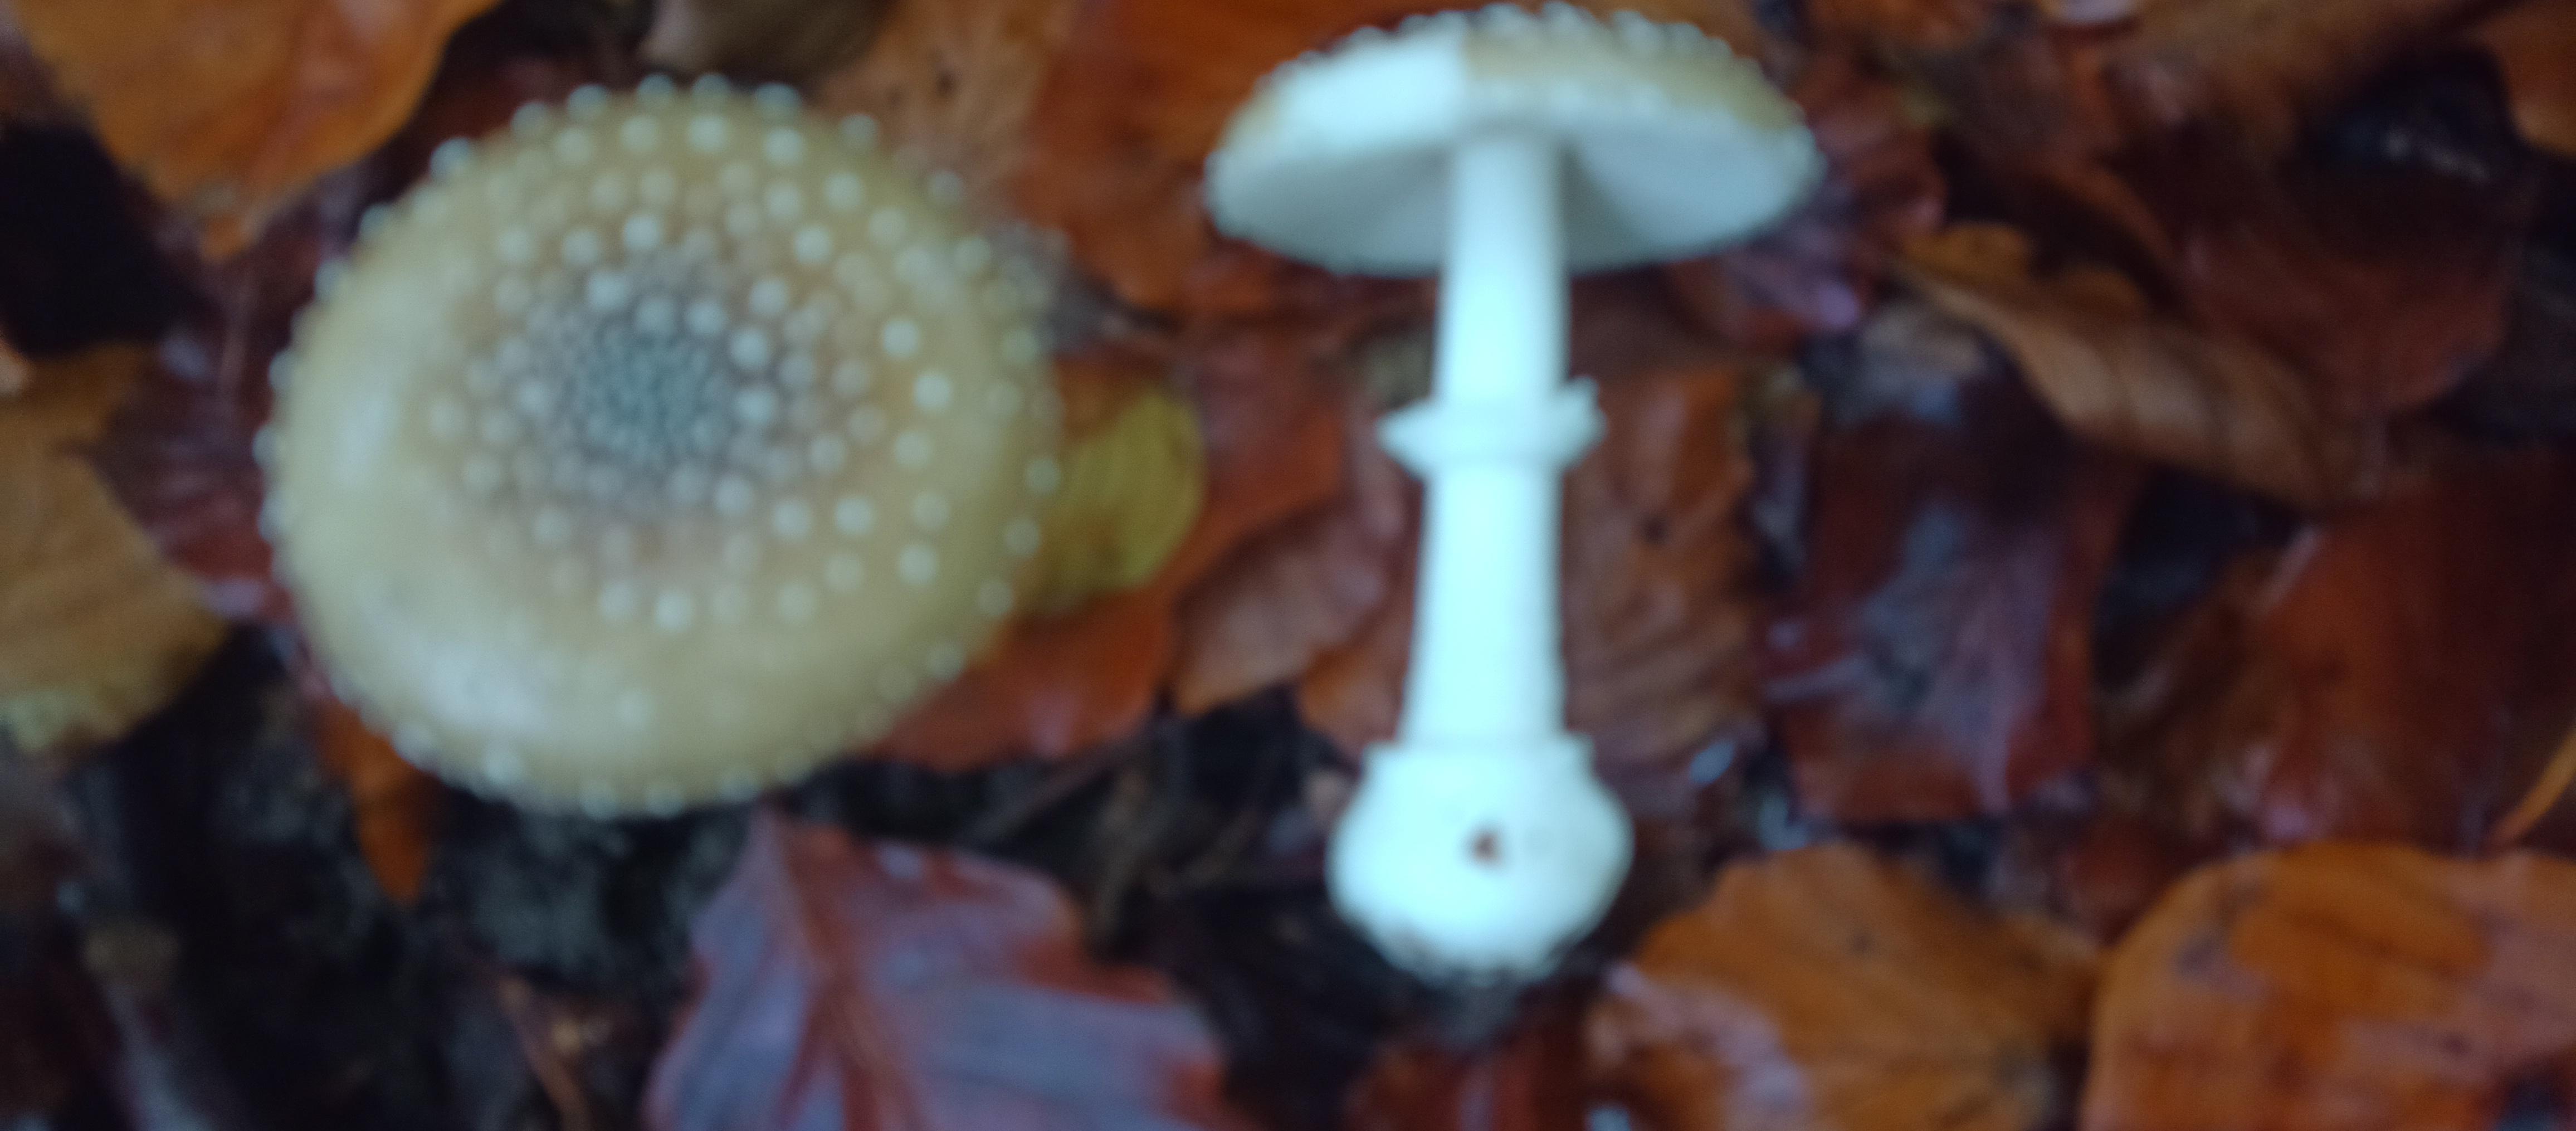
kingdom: Fungi
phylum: Basidiomycota
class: Agaricomycetes
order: Agaricales
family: Amanitaceae
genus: Amanita
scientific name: Amanita pantherina
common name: panter-fluesvamp
